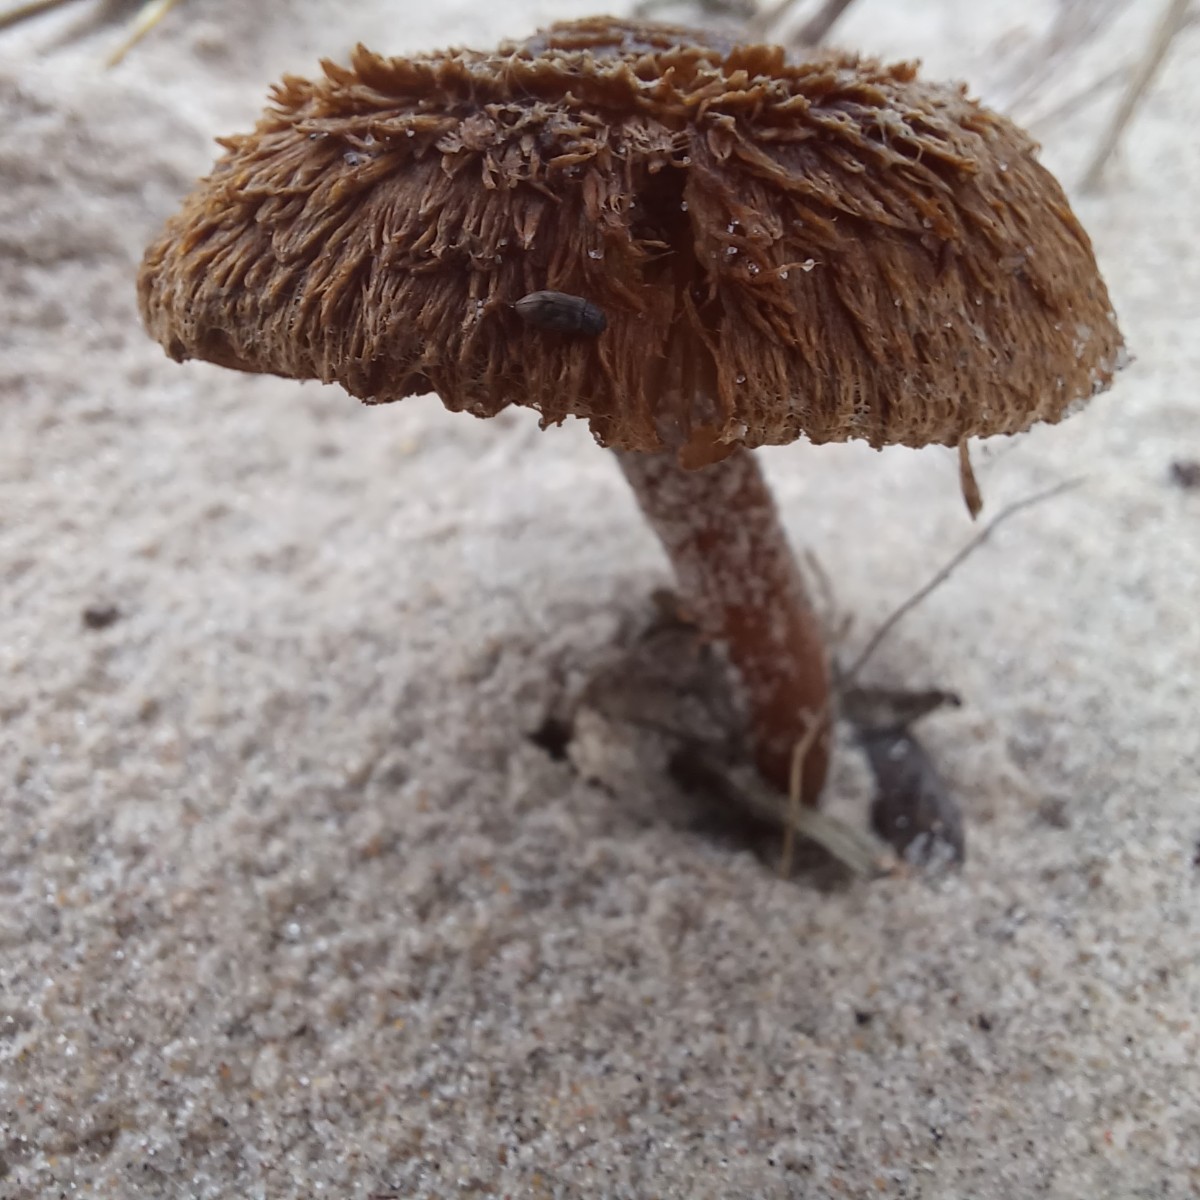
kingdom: Fungi
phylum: Basidiomycota
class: Agaricomycetes
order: Agaricales
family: Inocybaceae
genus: Inocybe
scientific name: Inocybe
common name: trævlhat
